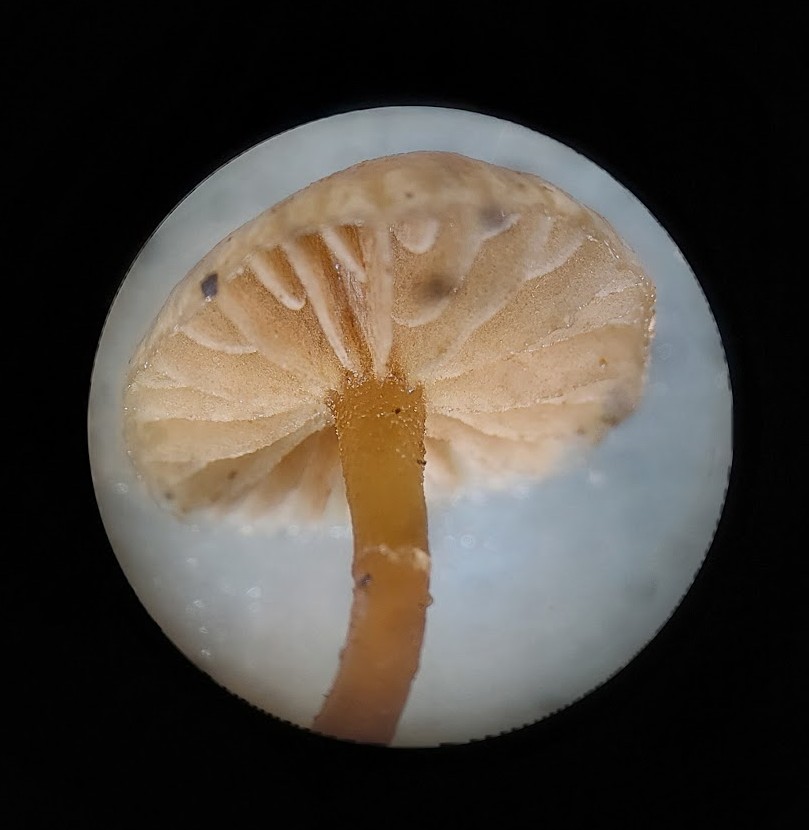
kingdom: Fungi
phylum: Basidiomycota
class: Agaricomycetes
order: Agaricales
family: Hymenogastraceae
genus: Galerina
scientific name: Galerina marginata
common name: randbæltet hjelmhat
